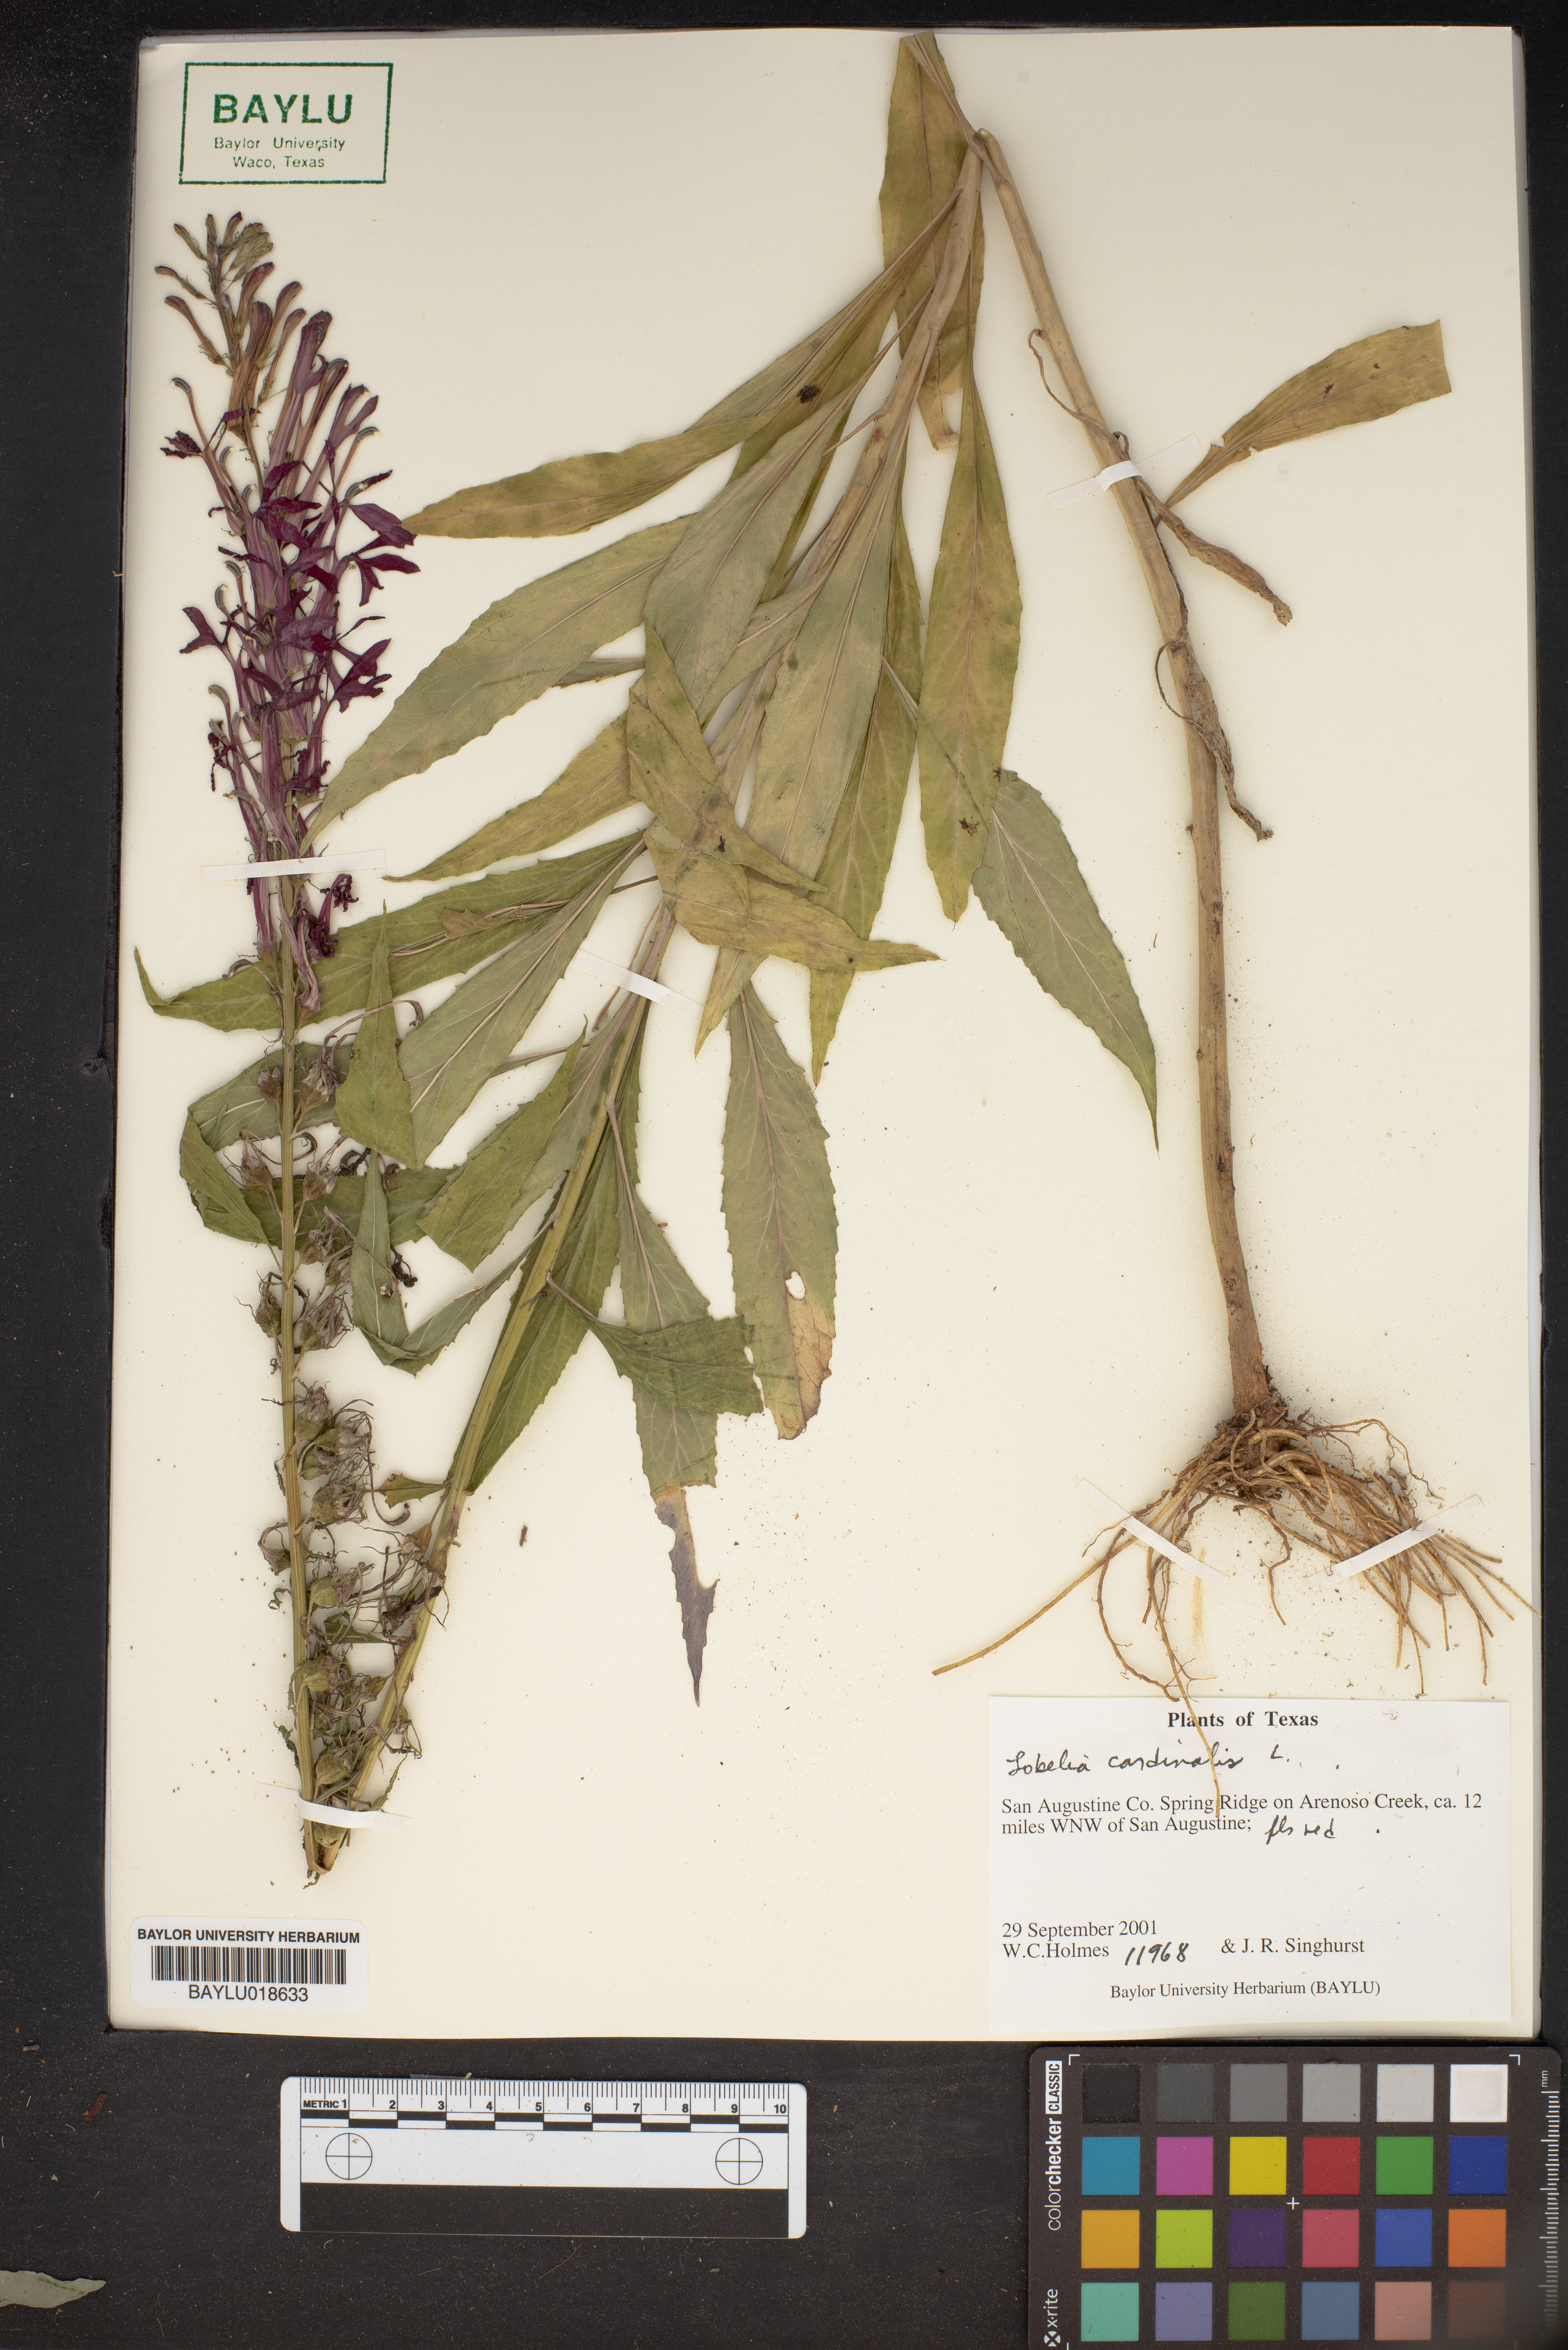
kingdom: Plantae
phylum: Tracheophyta
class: Magnoliopsida
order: Asterales
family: Campanulaceae
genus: Lobelia
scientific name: Lobelia cardinalis
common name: Cardinal flower
